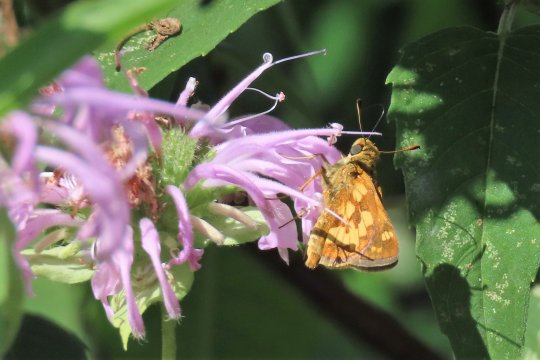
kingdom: Animalia
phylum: Arthropoda
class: Insecta
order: Lepidoptera
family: Hesperiidae
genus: Polites
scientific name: Polites coras
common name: Peck's Skipper
